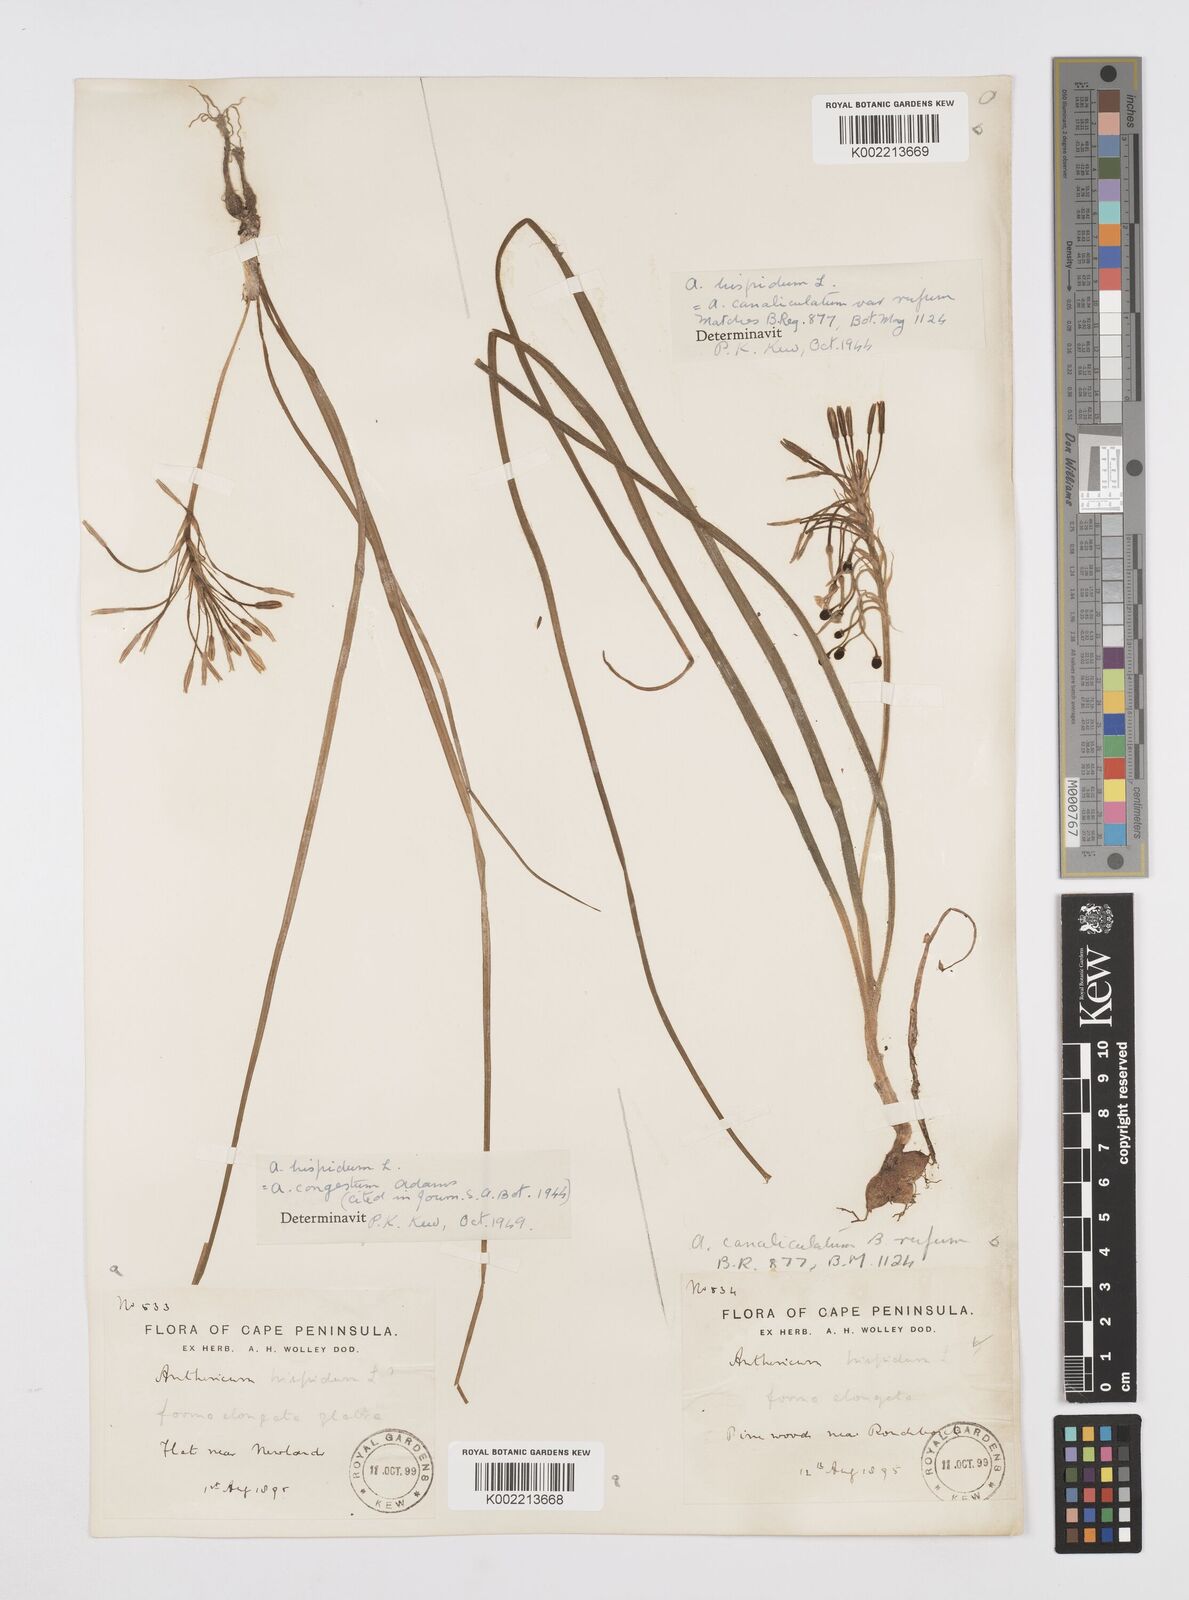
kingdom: Plantae
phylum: Tracheophyta
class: Liliopsida
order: Asparagales
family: Asphodelaceae
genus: Trachyandra
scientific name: Trachyandra hispida
